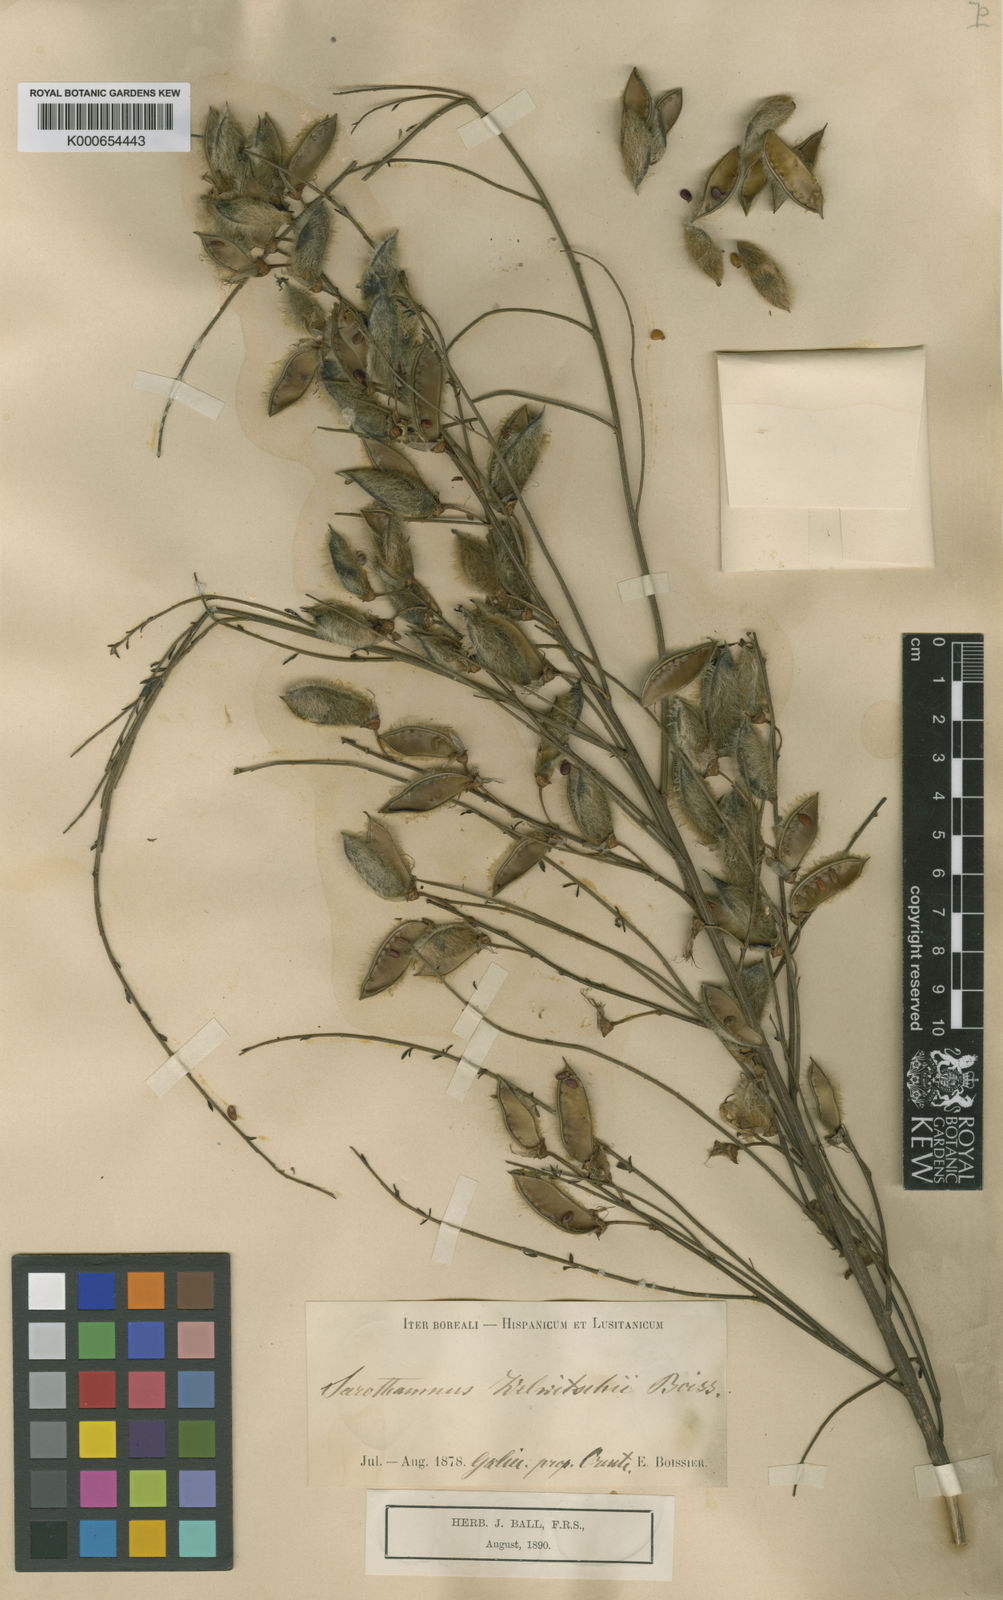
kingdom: Plantae
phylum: Tracheophyta
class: Magnoliopsida
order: Fabales
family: Fabaceae
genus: Cytisus
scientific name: Cytisus striatus
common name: Hairy-fruited broom
